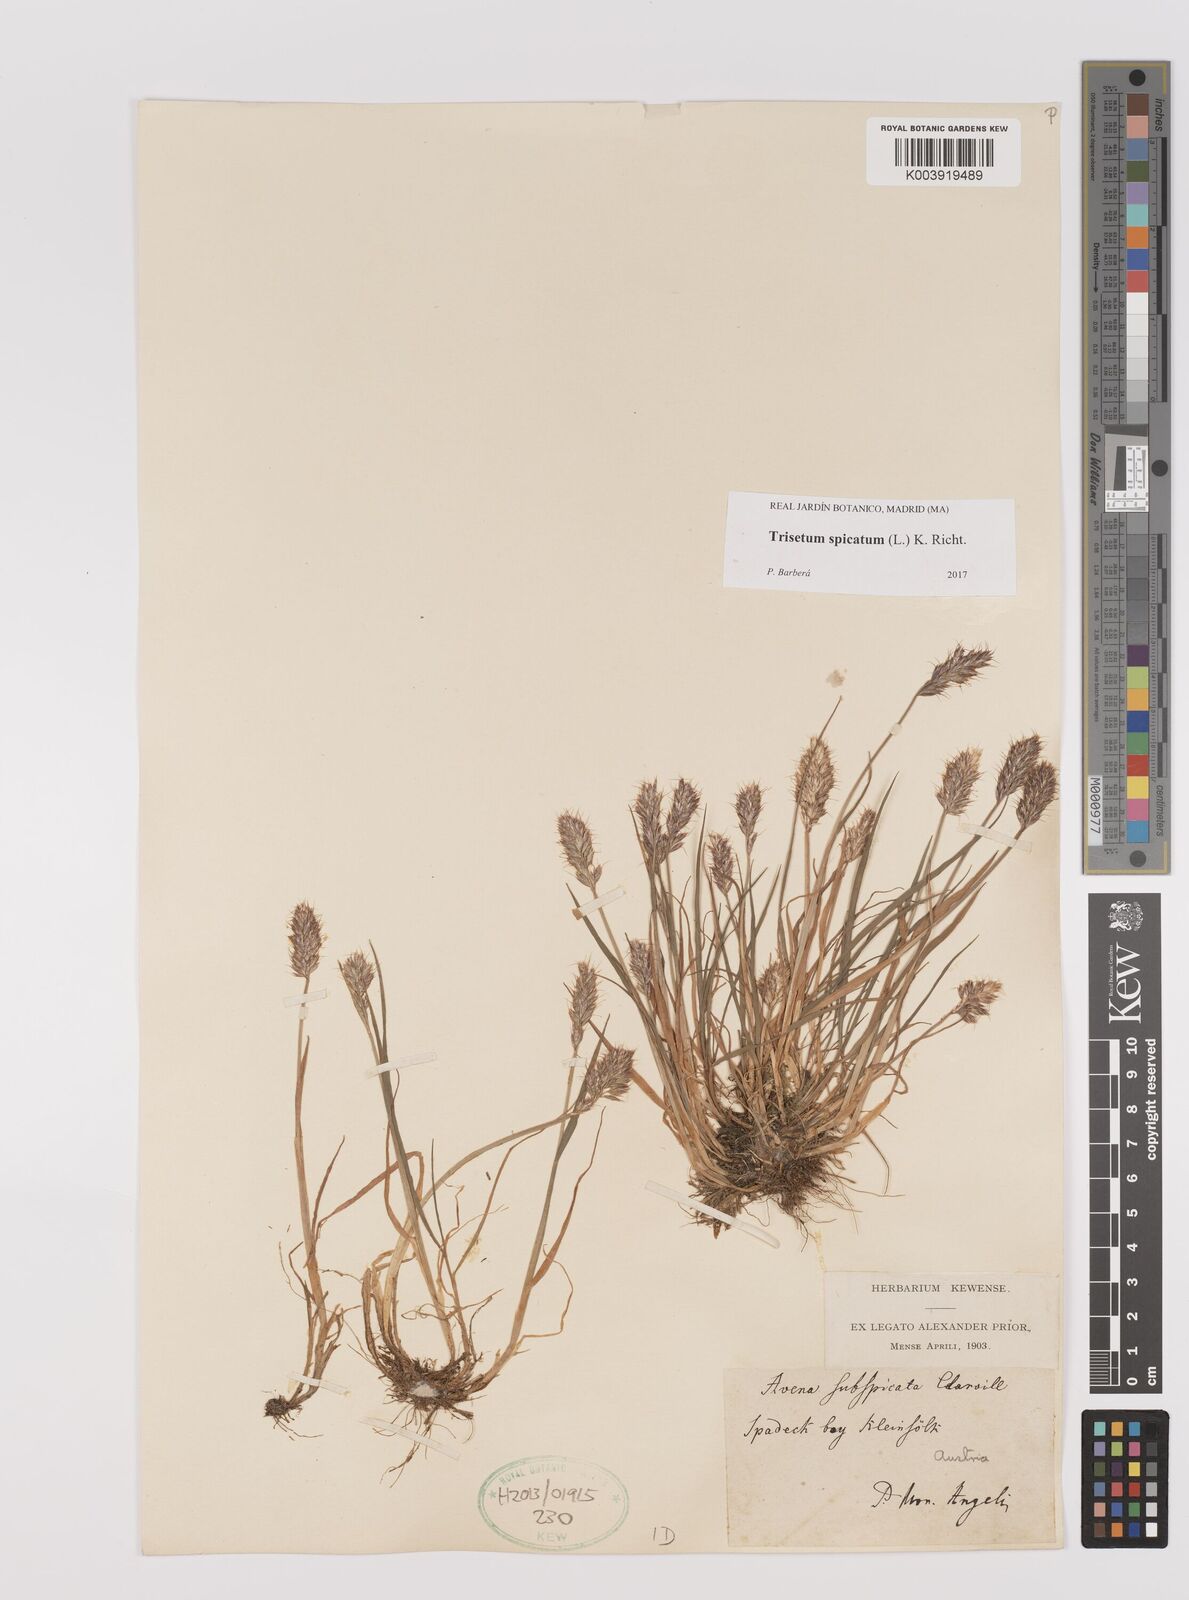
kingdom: Plantae
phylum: Tracheophyta
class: Liliopsida
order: Poales
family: Poaceae
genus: Koeleria
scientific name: Koeleria spicata
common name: Mountain trisetum
